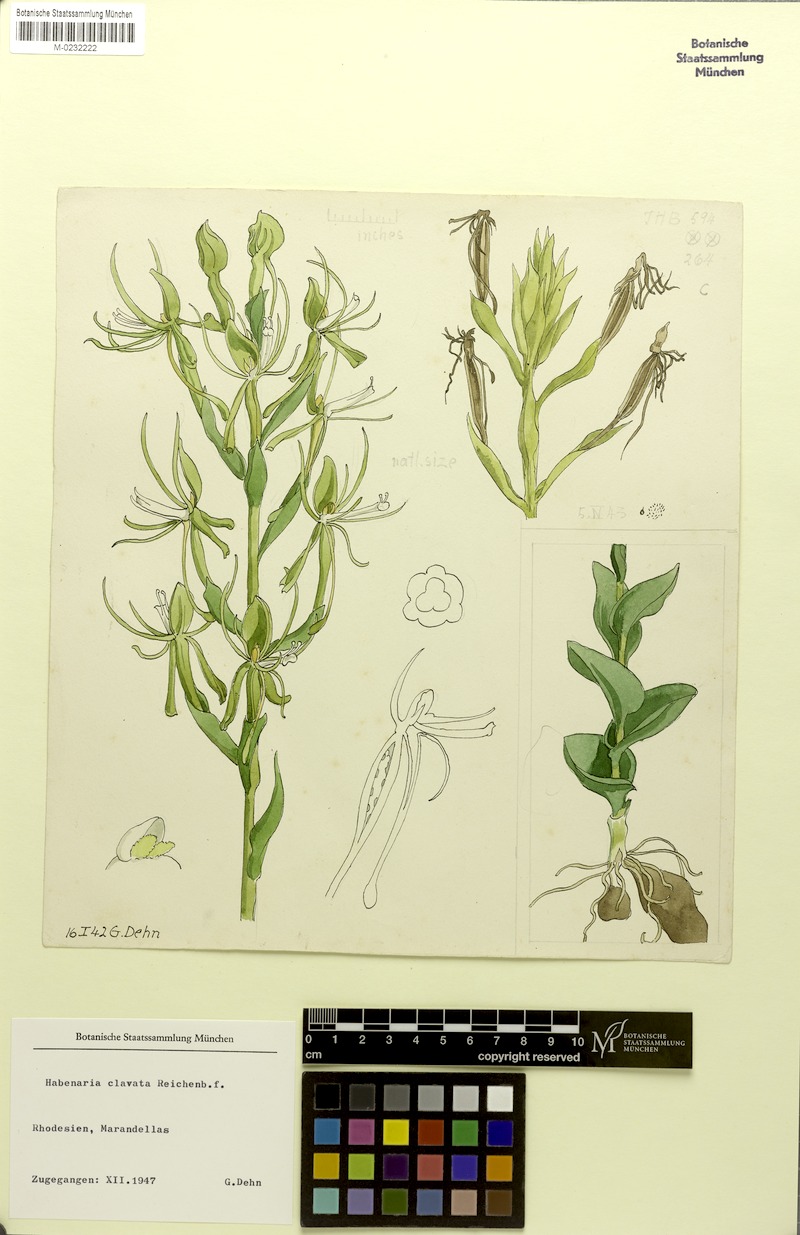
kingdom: Plantae
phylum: Tracheophyta
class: Liliopsida
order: Asparagales
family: Orchidaceae
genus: Habenaria
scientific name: Habenaria clavata
